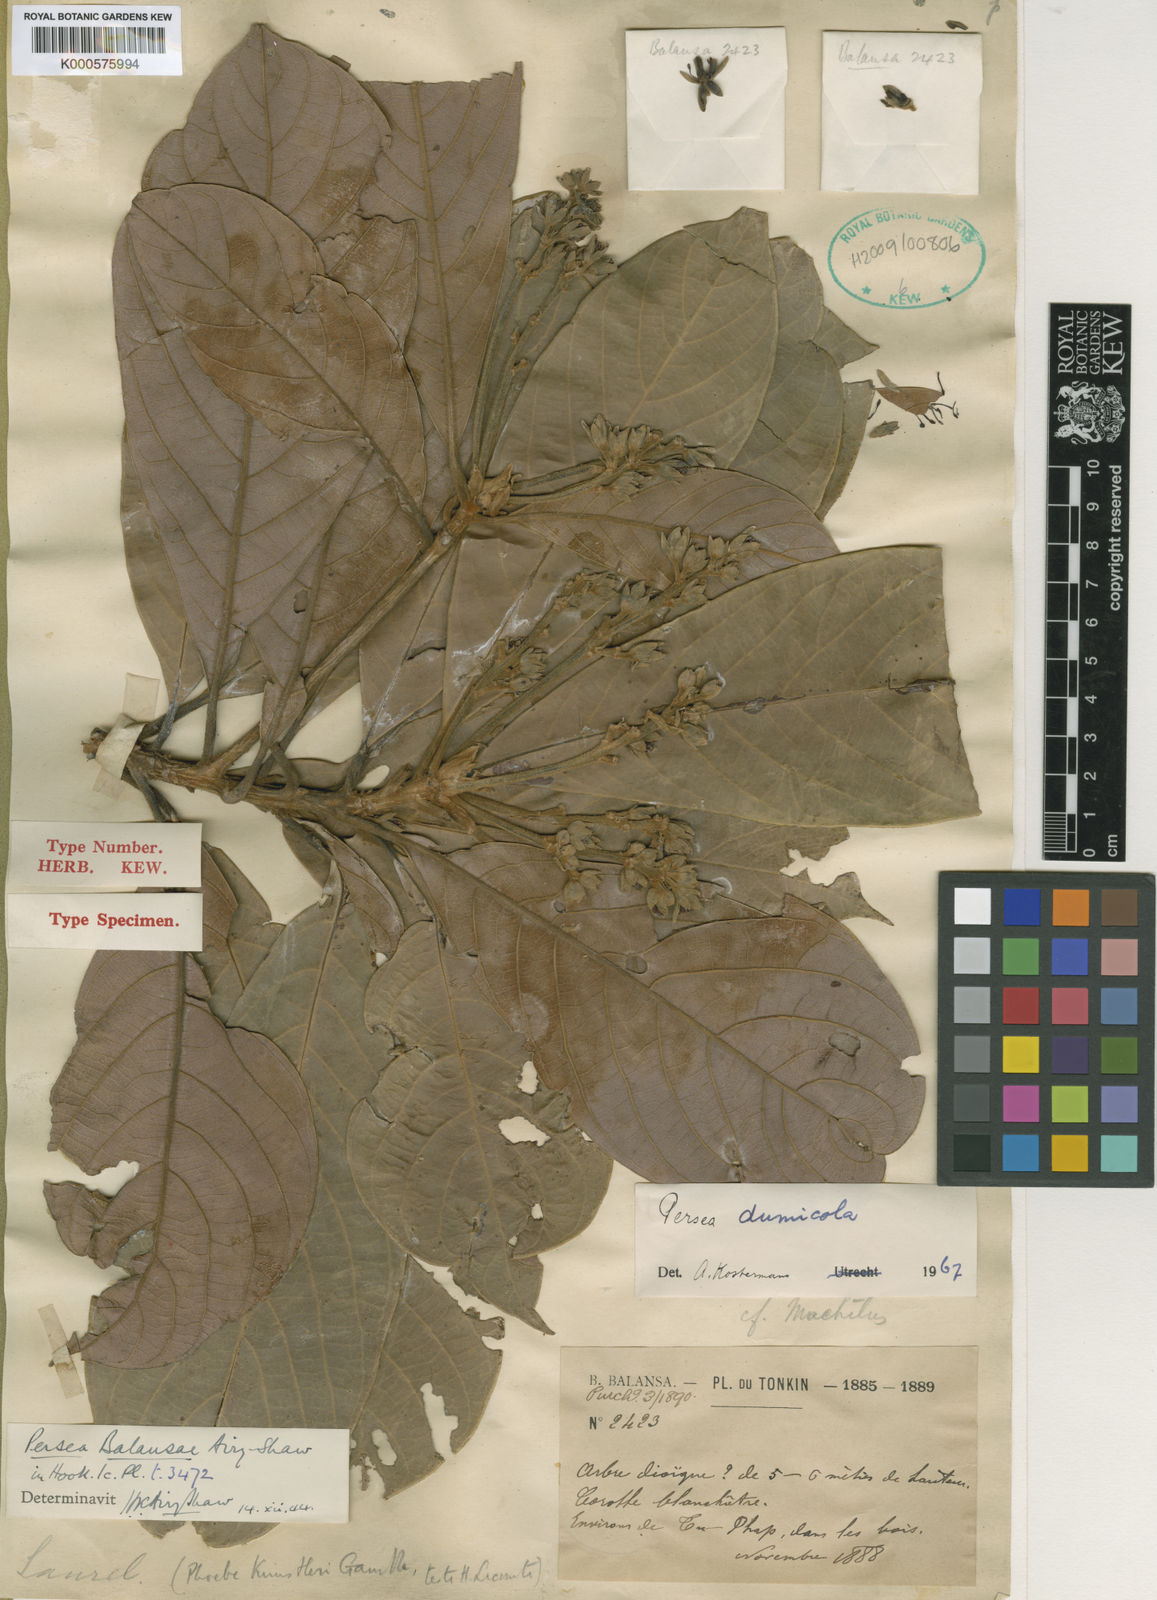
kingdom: Plantae
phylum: Tracheophyta
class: Magnoliopsida
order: Laurales
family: Lauraceae
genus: Machilus
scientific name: Machilus dumicola
